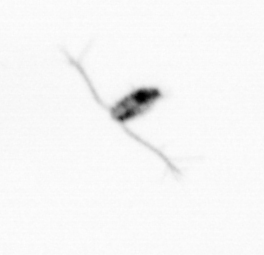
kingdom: Animalia
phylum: Arthropoda
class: Copepoda
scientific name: Copepoda
